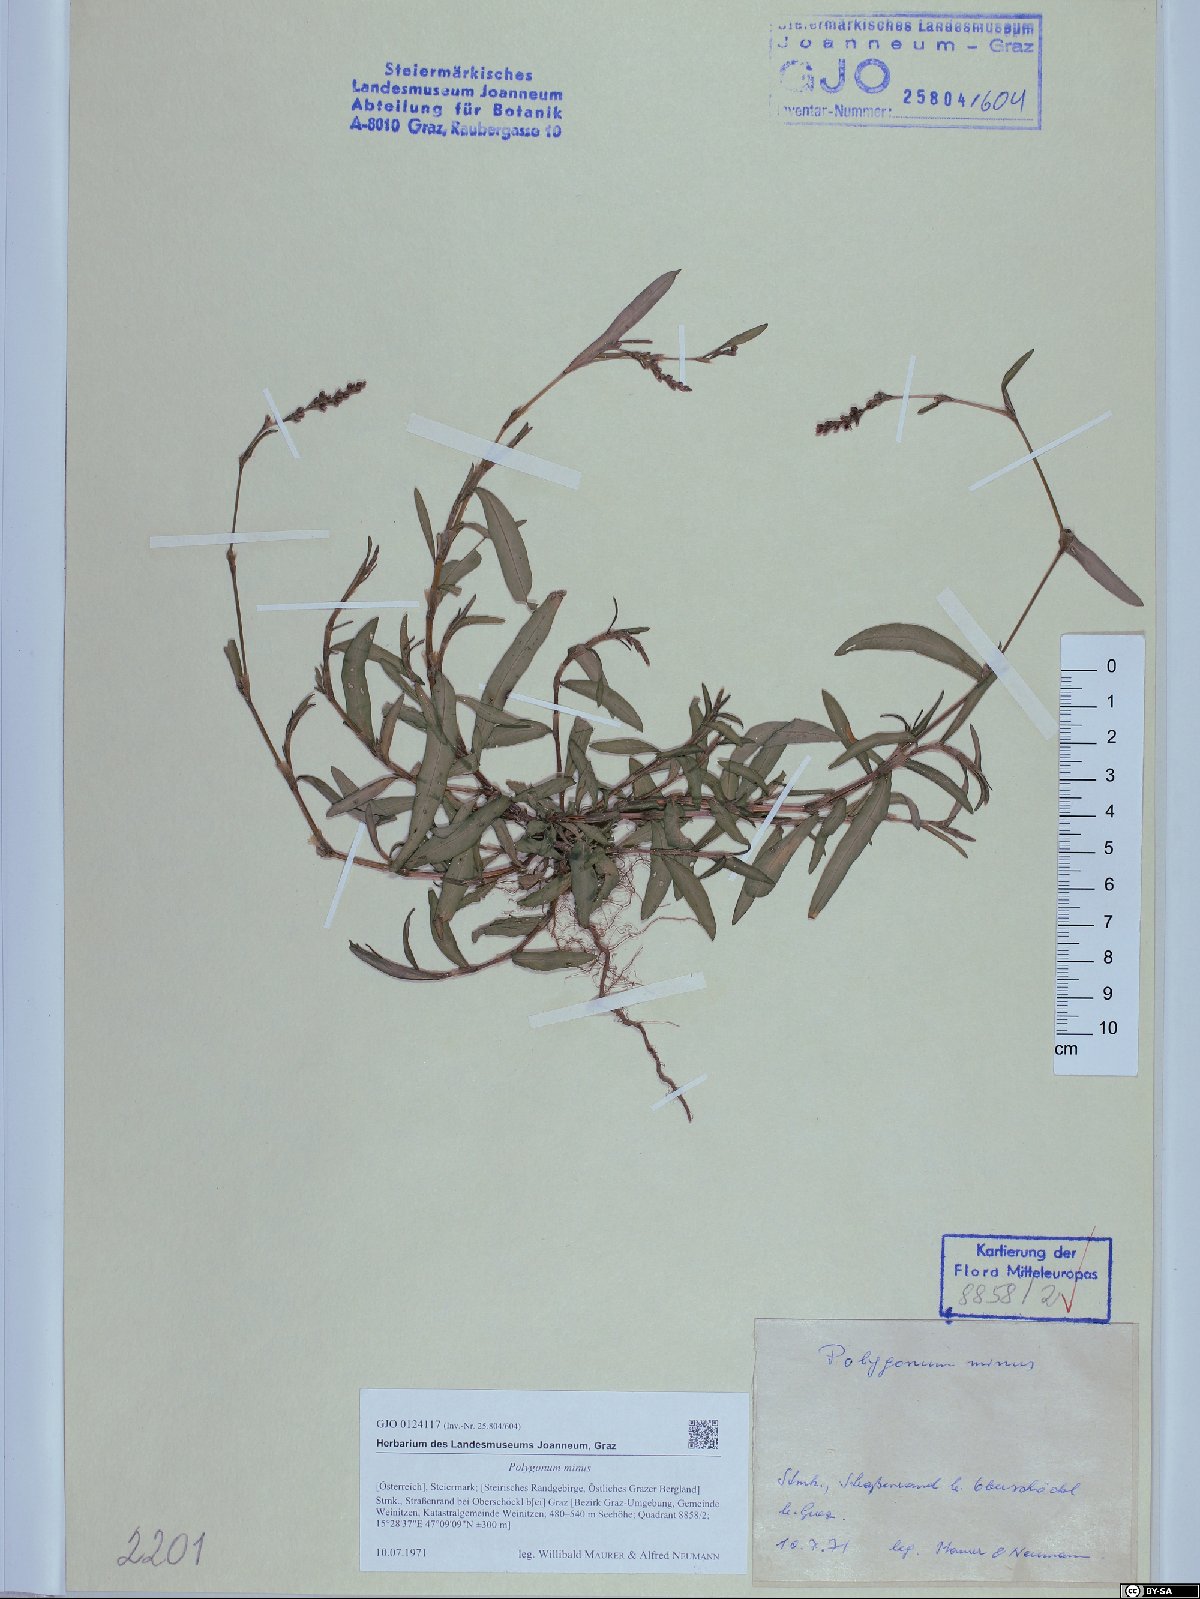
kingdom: Plantae
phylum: Tracheophyta
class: Magnoliopsida
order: Caryophyllales
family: Polygonaceae
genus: Persicaria
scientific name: Persicaria minor
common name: Small water-pepper
